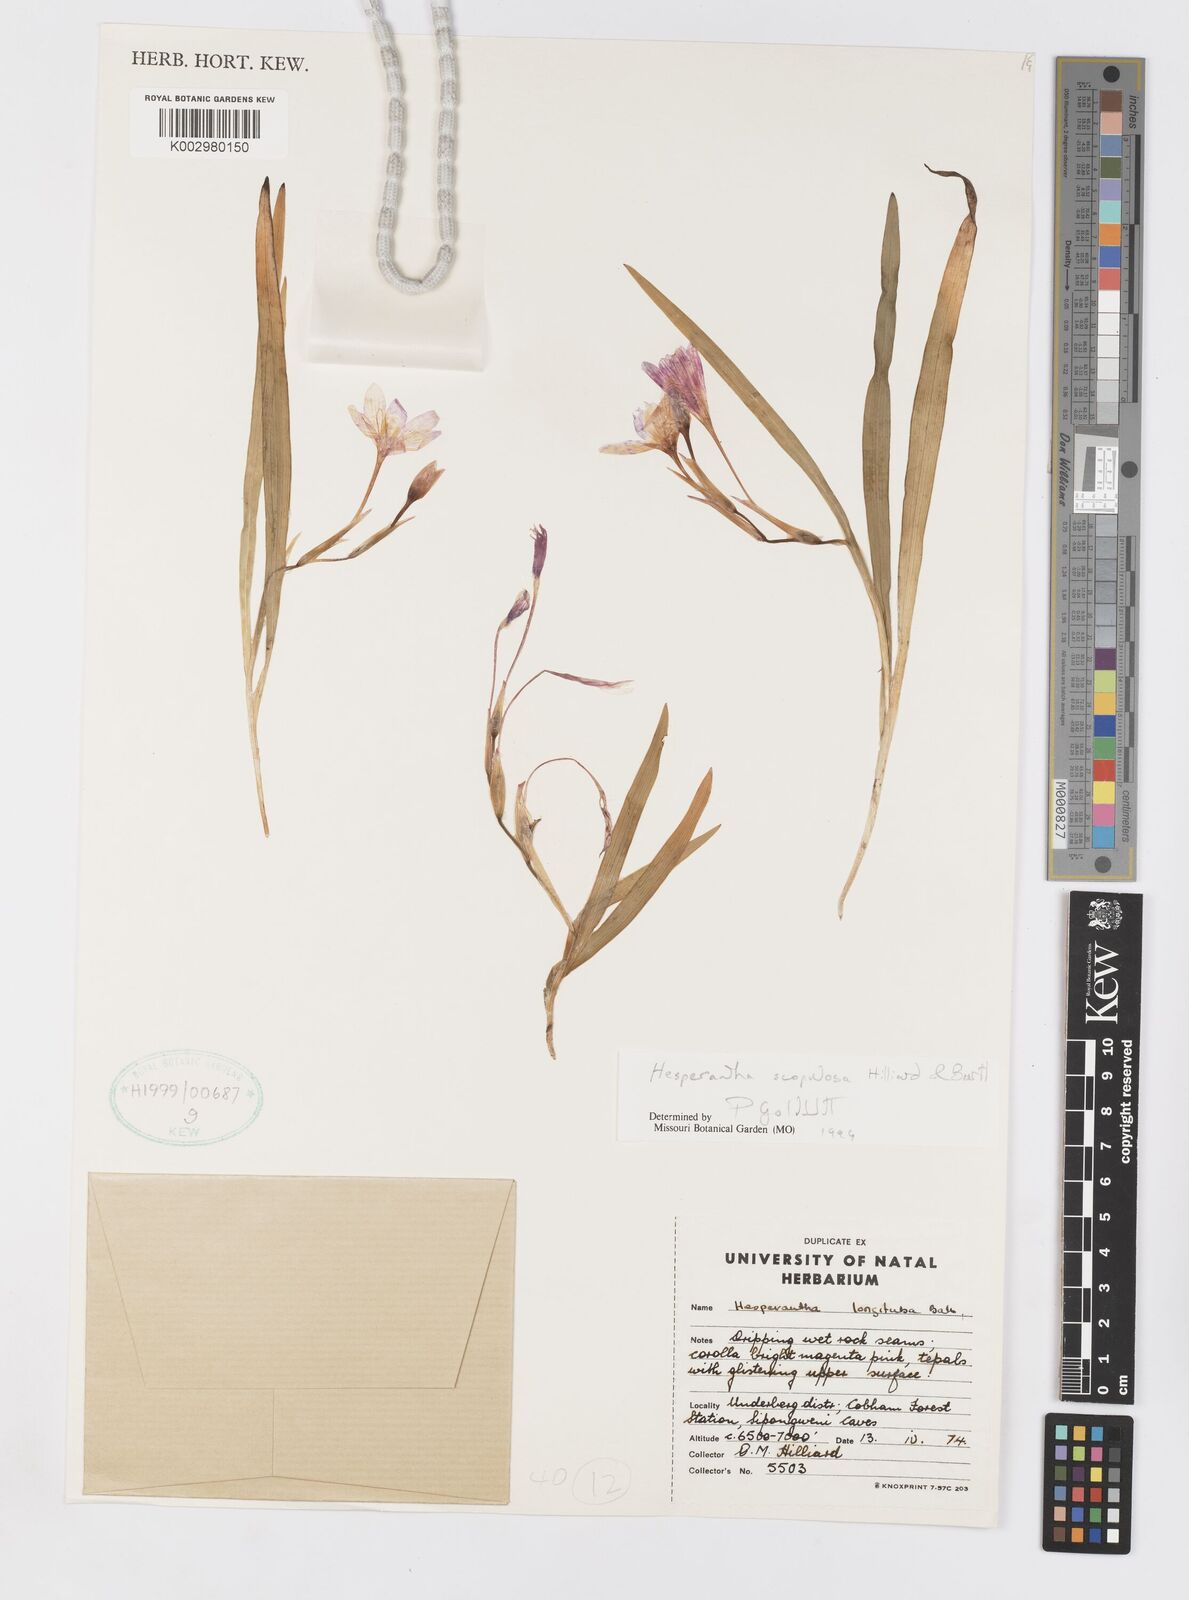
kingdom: Plantae
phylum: Tracheophyta
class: Liliopsida
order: Asparagales
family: Iridaceae
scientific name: Iridaceae
